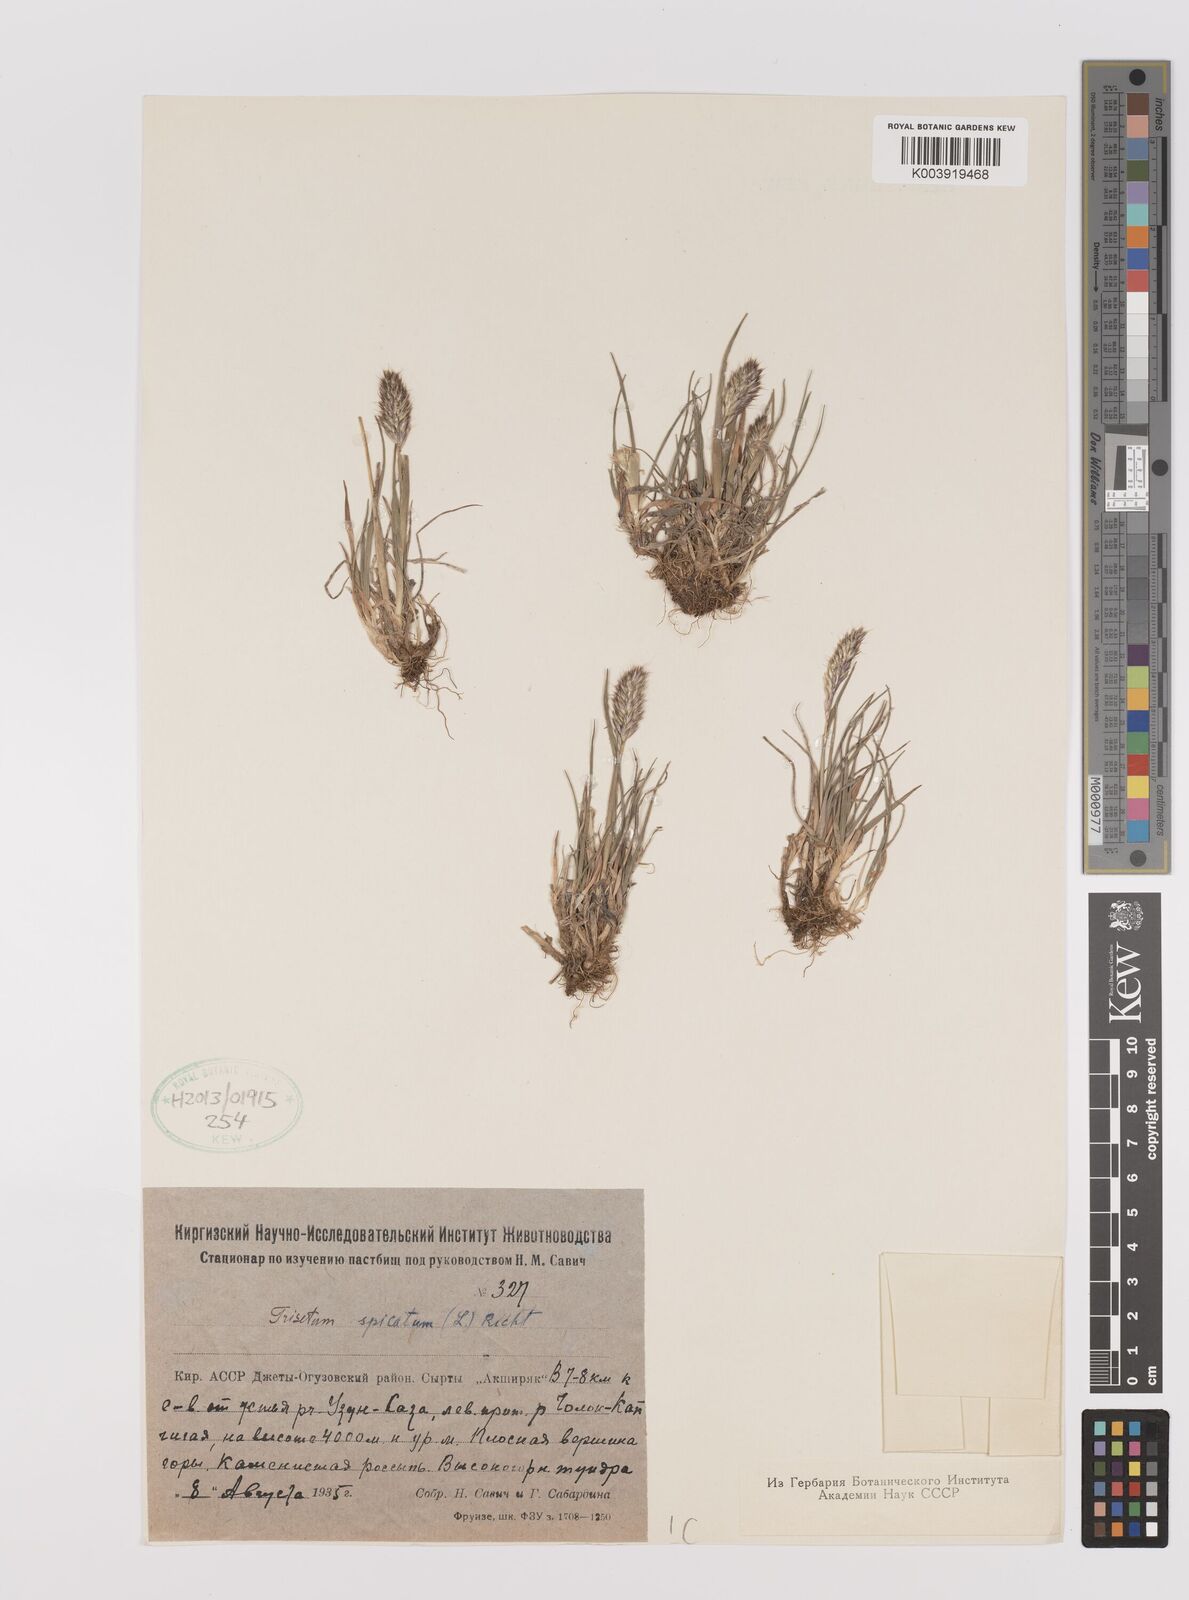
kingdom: Plantae
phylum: Tracheophyta
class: Liliopsida
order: Poales
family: Poaceae
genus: Koeleria
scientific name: Koeleria spicata
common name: Mountain trisetum
